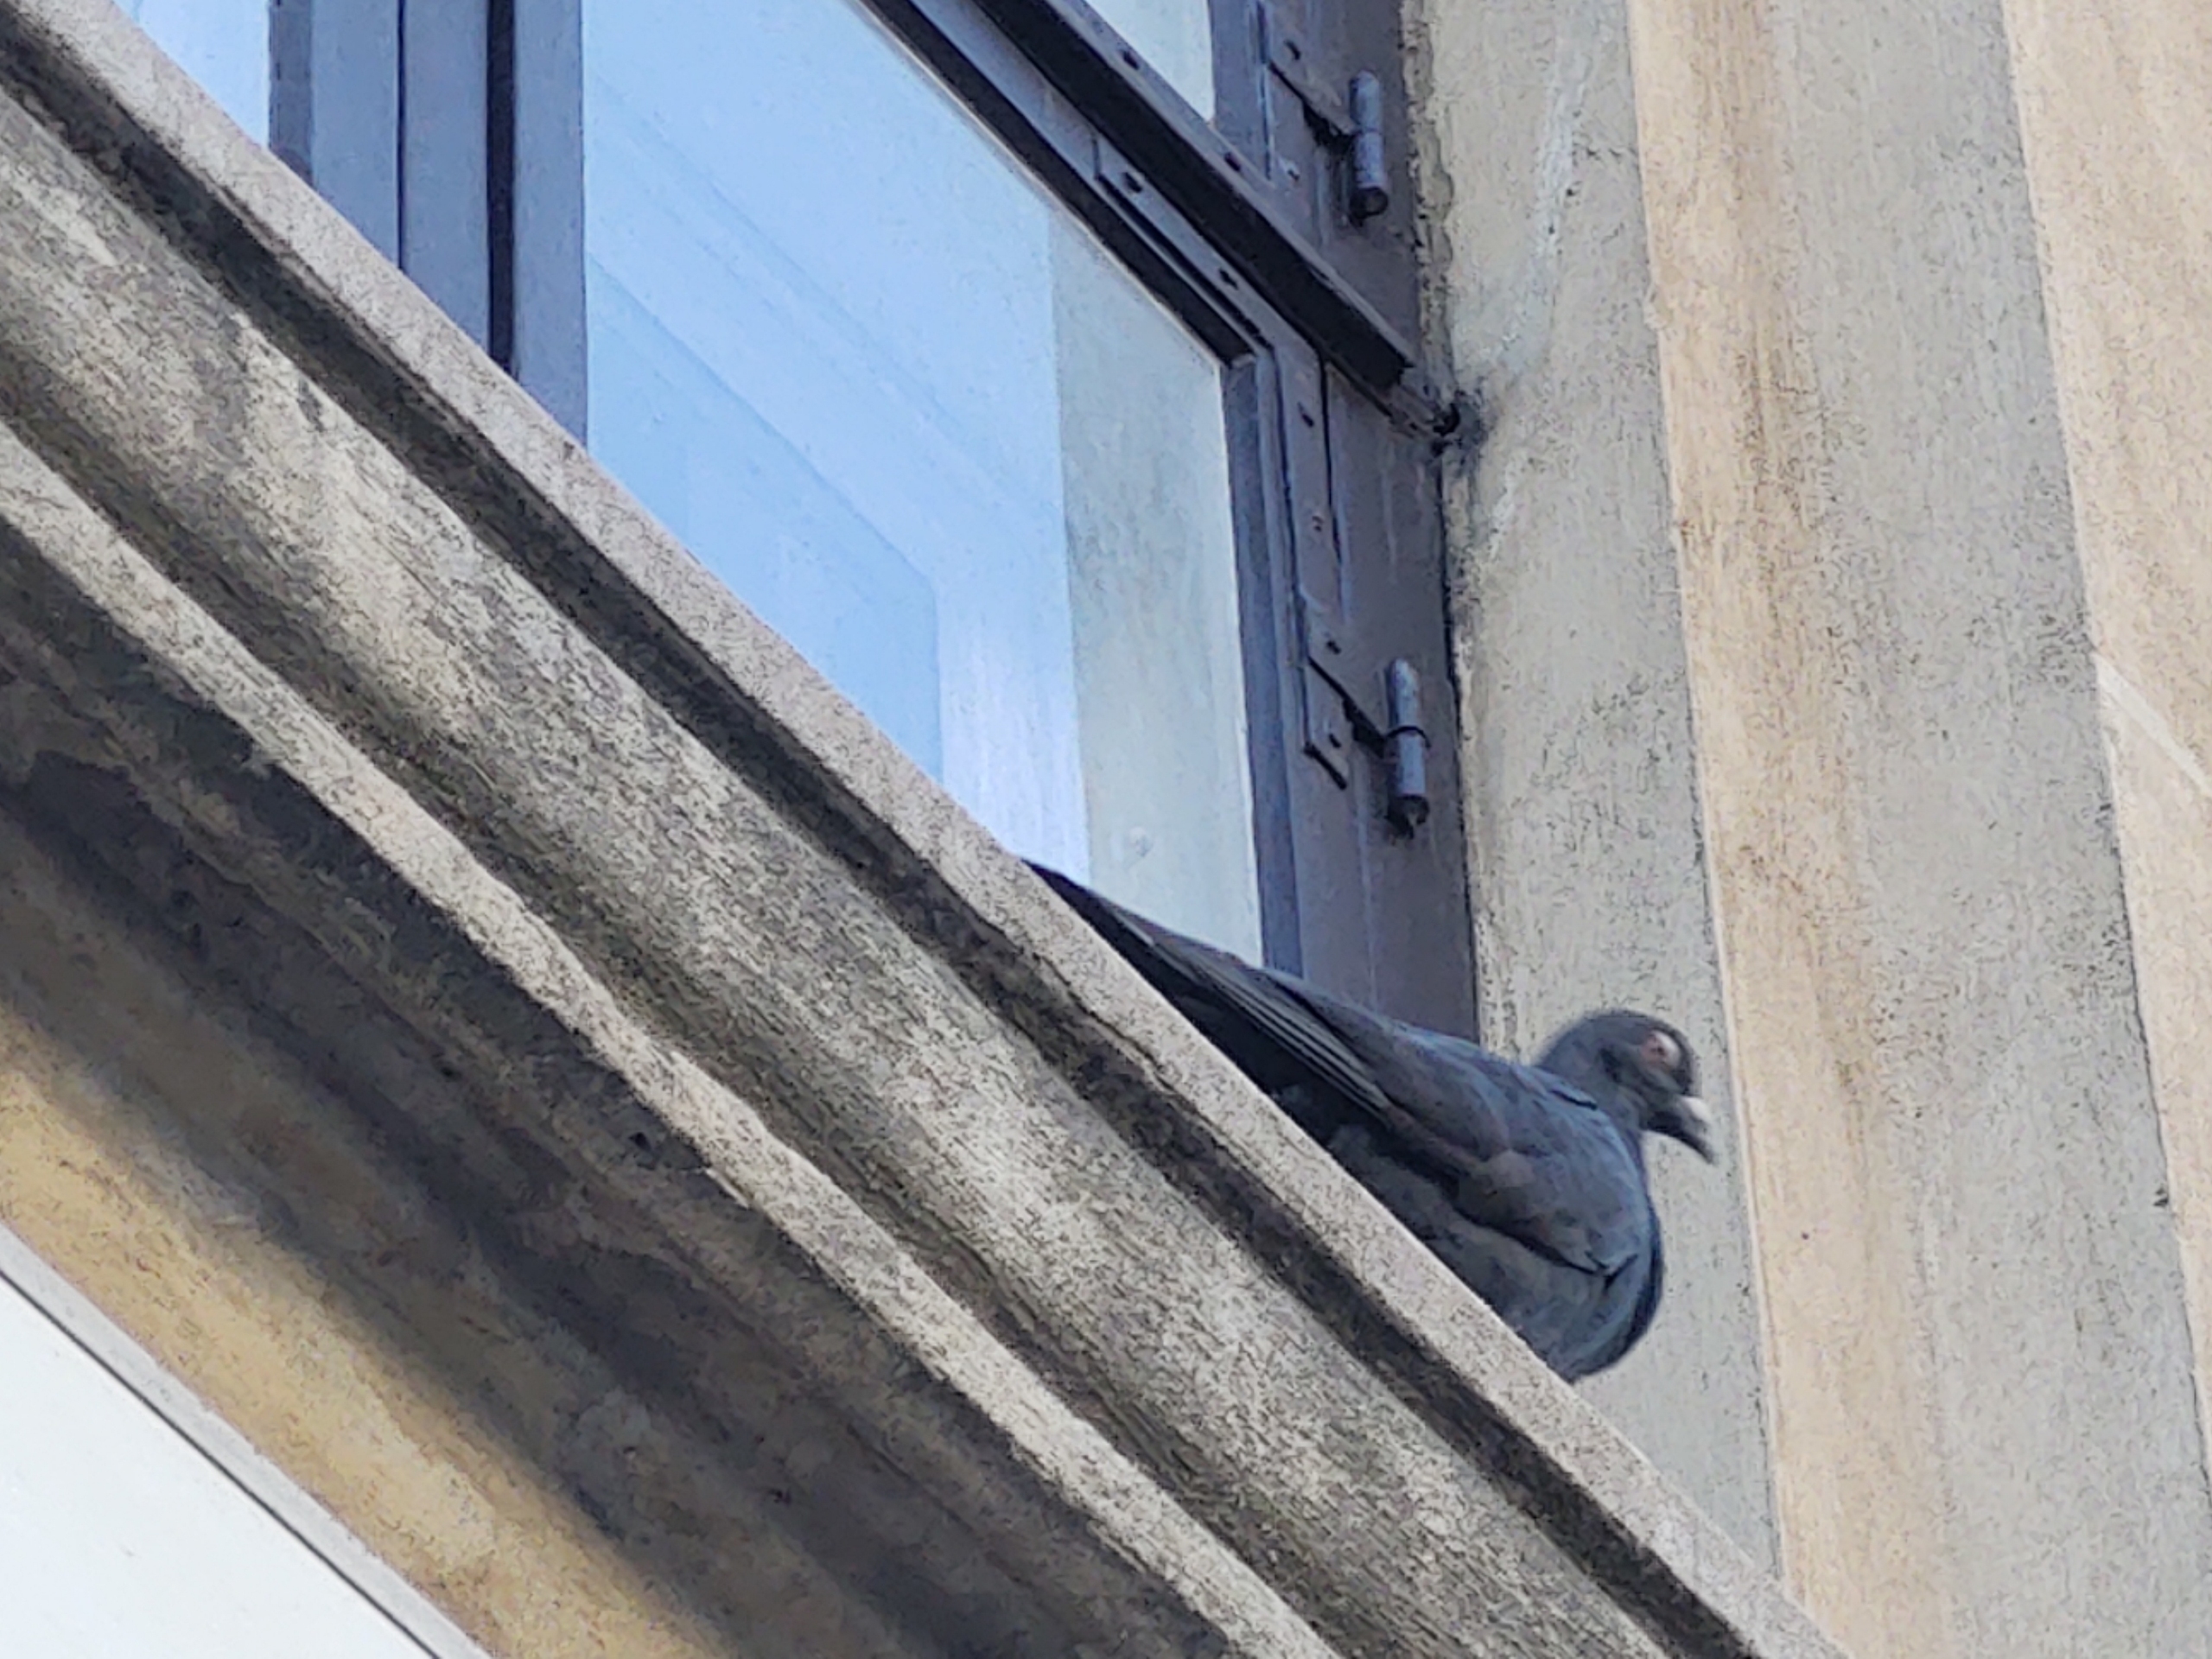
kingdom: Animalia
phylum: Chordata
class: Aves
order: Columbiformes
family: Columbidae
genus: Columba
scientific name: Columba livia
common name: Tamdue
